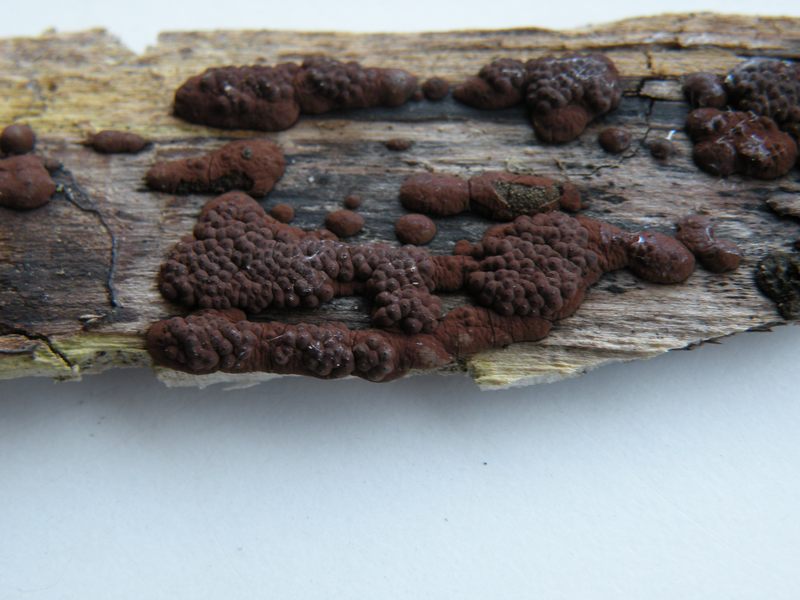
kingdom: Fungi
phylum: Ascomycota
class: Sordariomycetes
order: Xylariales
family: Hypoxylaceae
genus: Jackrogersella
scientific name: Jackrogersella multiformis
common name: foranderlig kulbær
